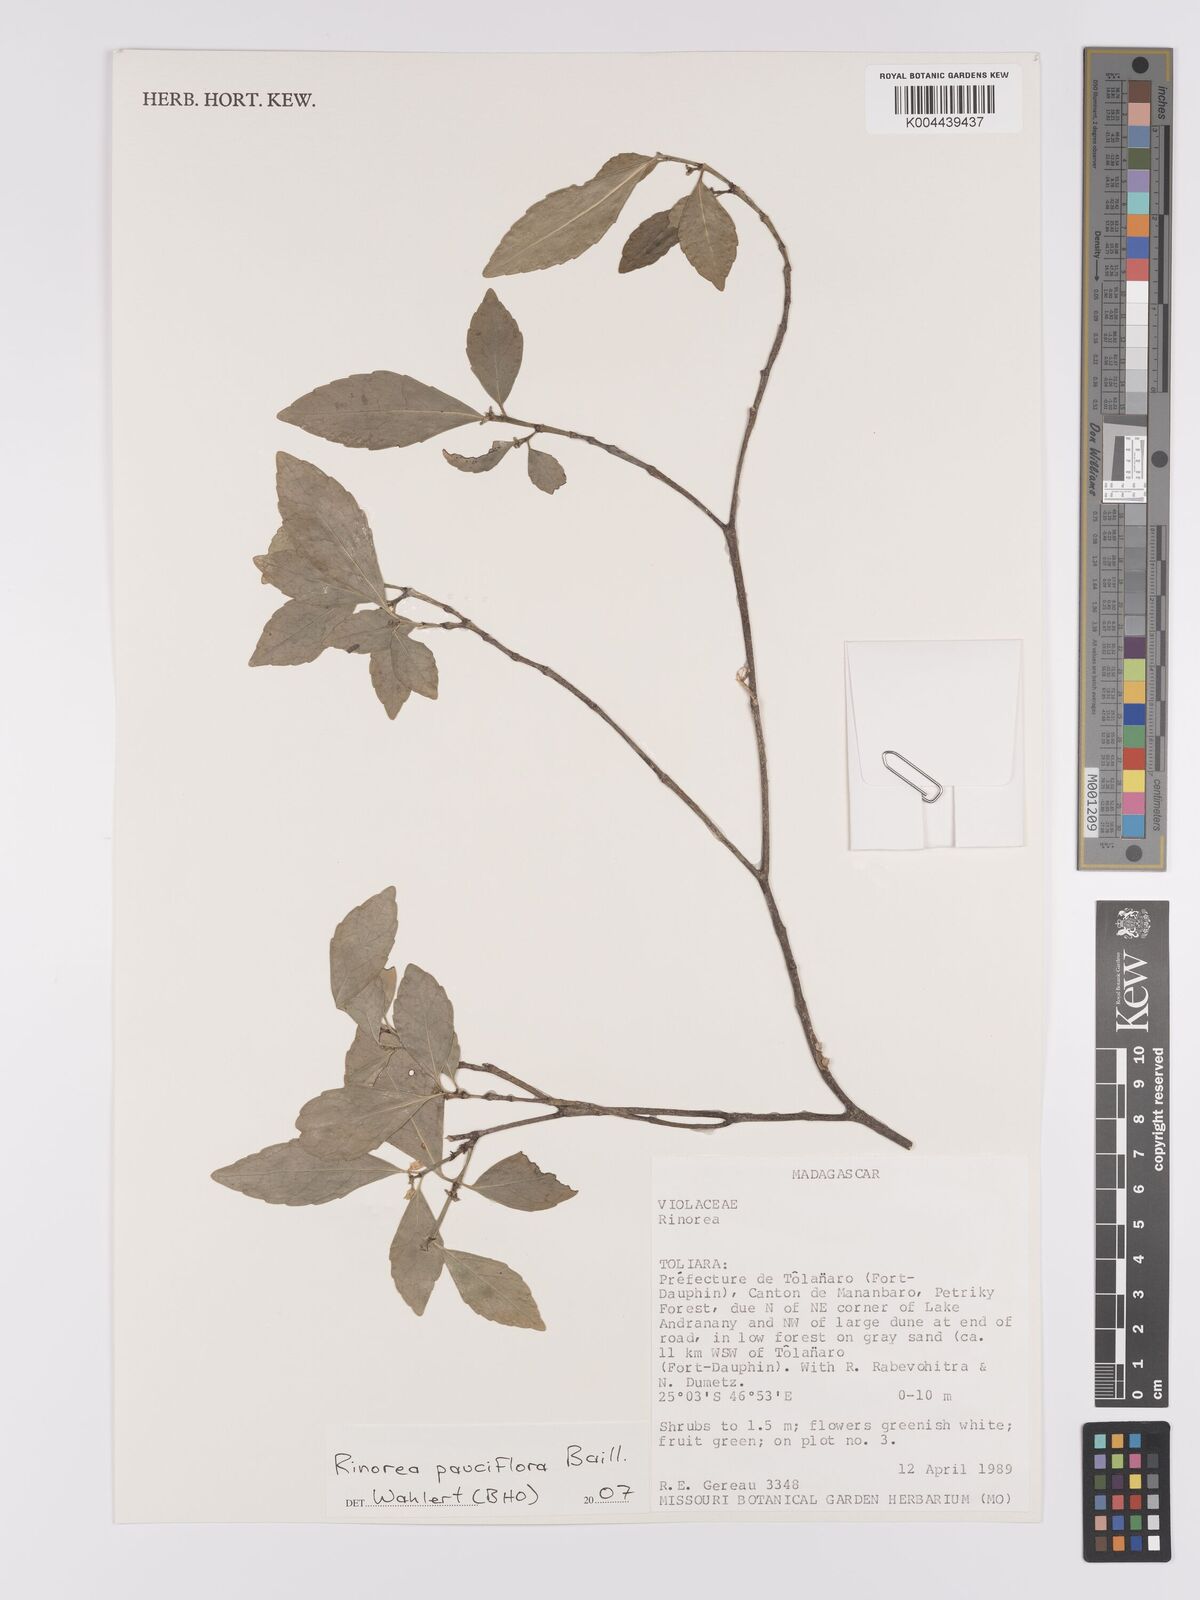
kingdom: Plantae
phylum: Tracheophyta
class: Magnoliopsida
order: Malpighiales
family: Violaceae
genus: Rinorea
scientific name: Rinorea pauciflora
